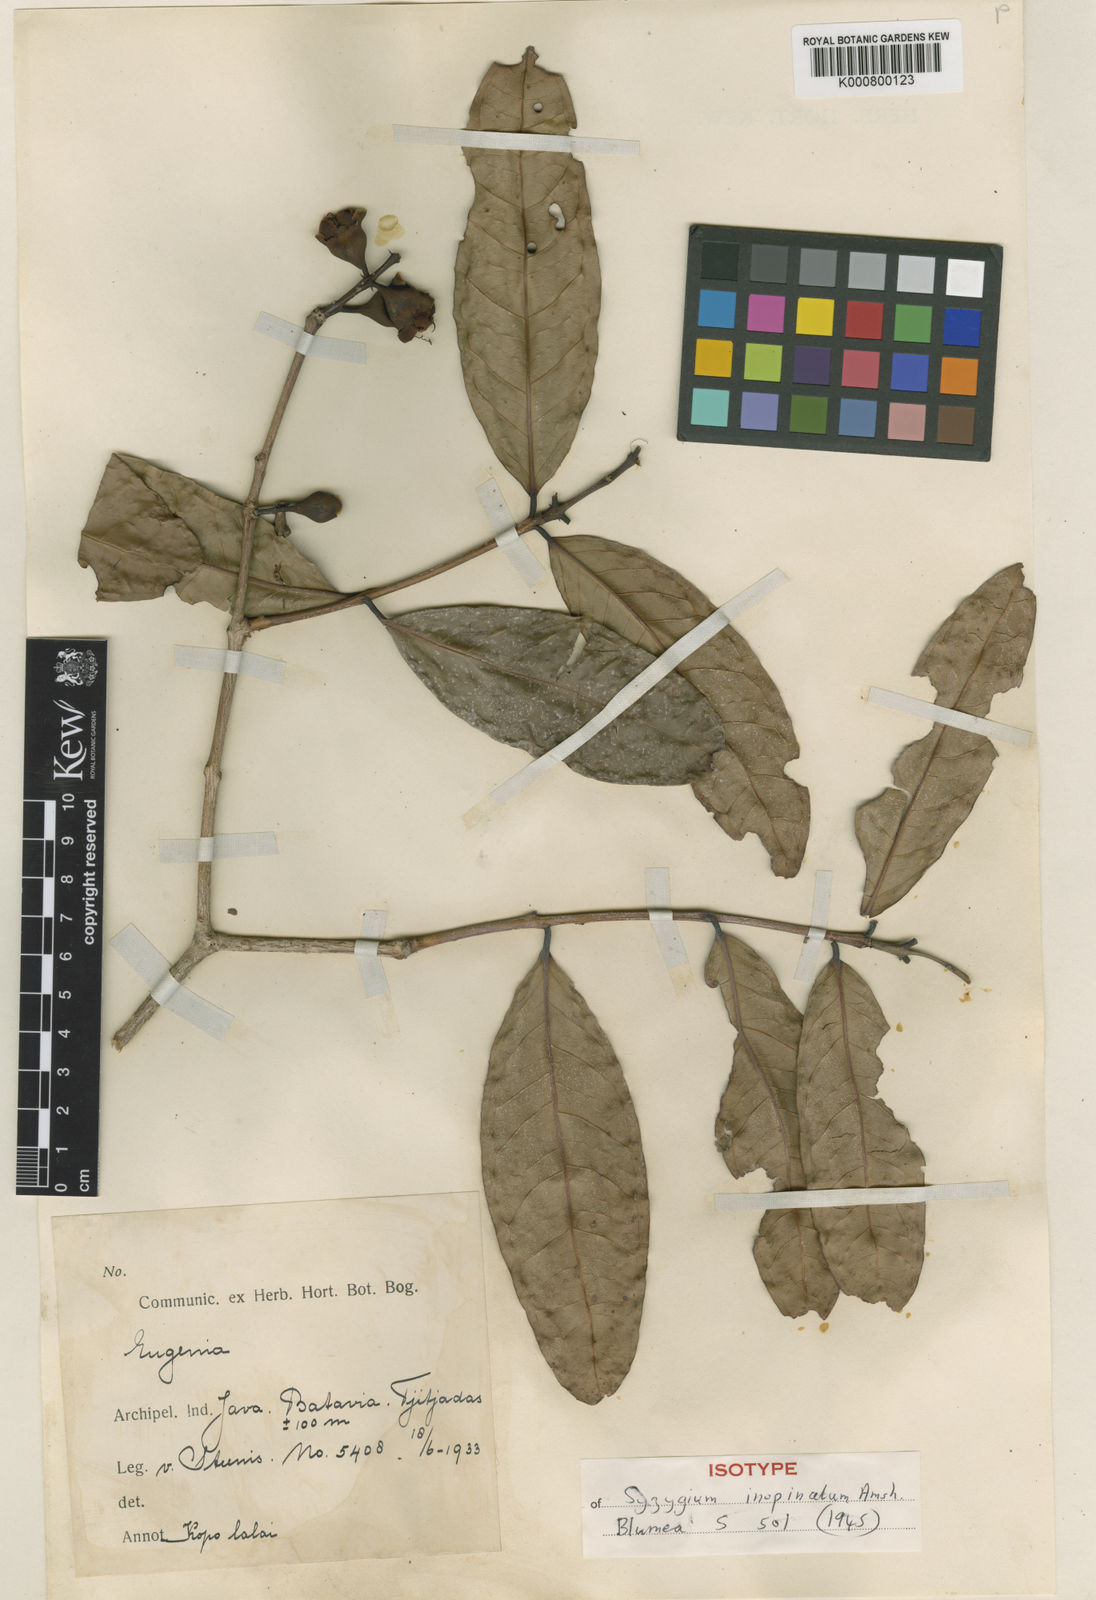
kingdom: Plantae
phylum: Tracheophyta
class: Magnoliopsida
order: Myrtales
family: Myrtaceae
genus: Syzygium
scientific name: Syzygium inopinatum
